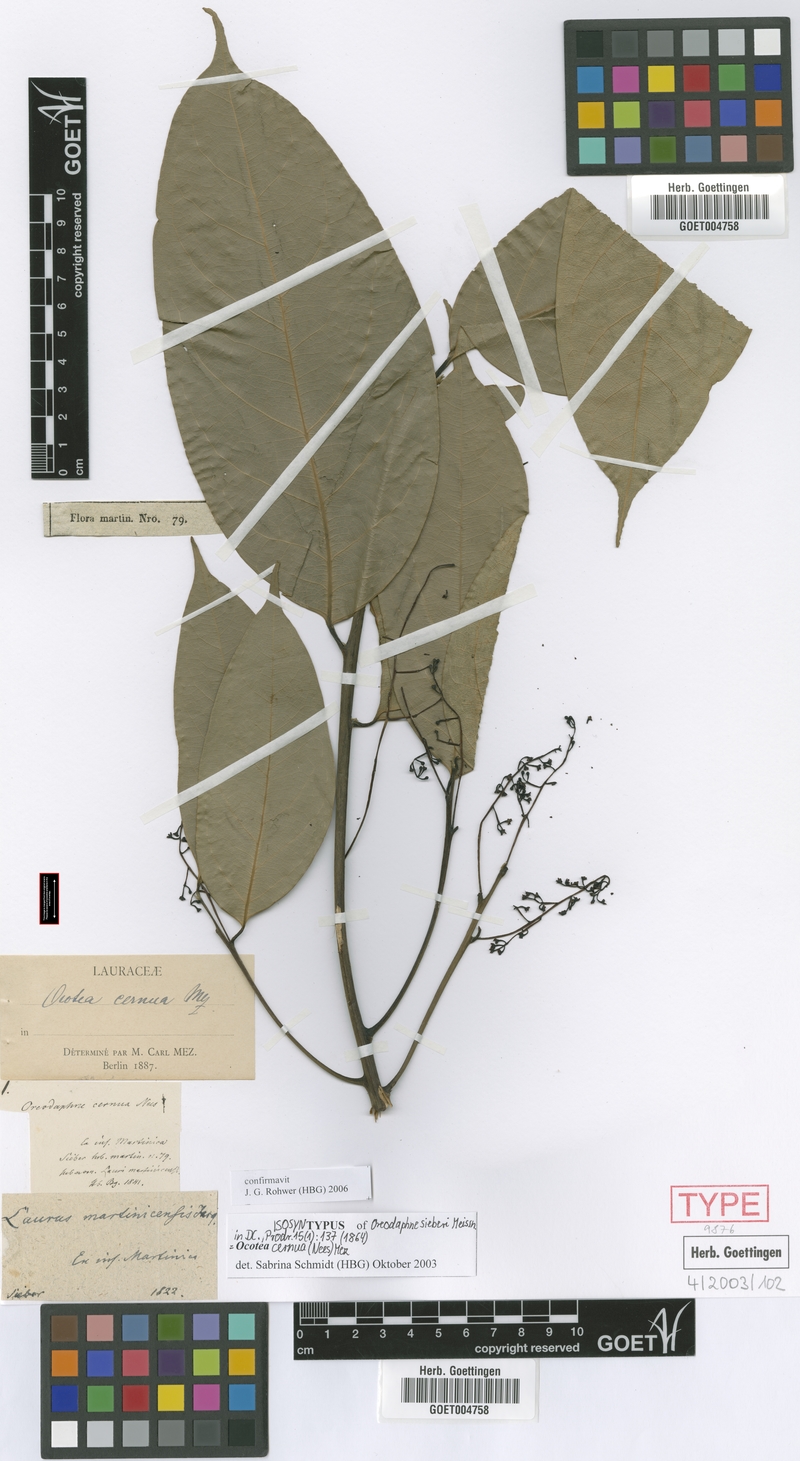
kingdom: Plantae
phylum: Tracheophyta
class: Magnoliopsida
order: Laurales
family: Lauraceae
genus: Ocotea
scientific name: Ocotea leptobotra
